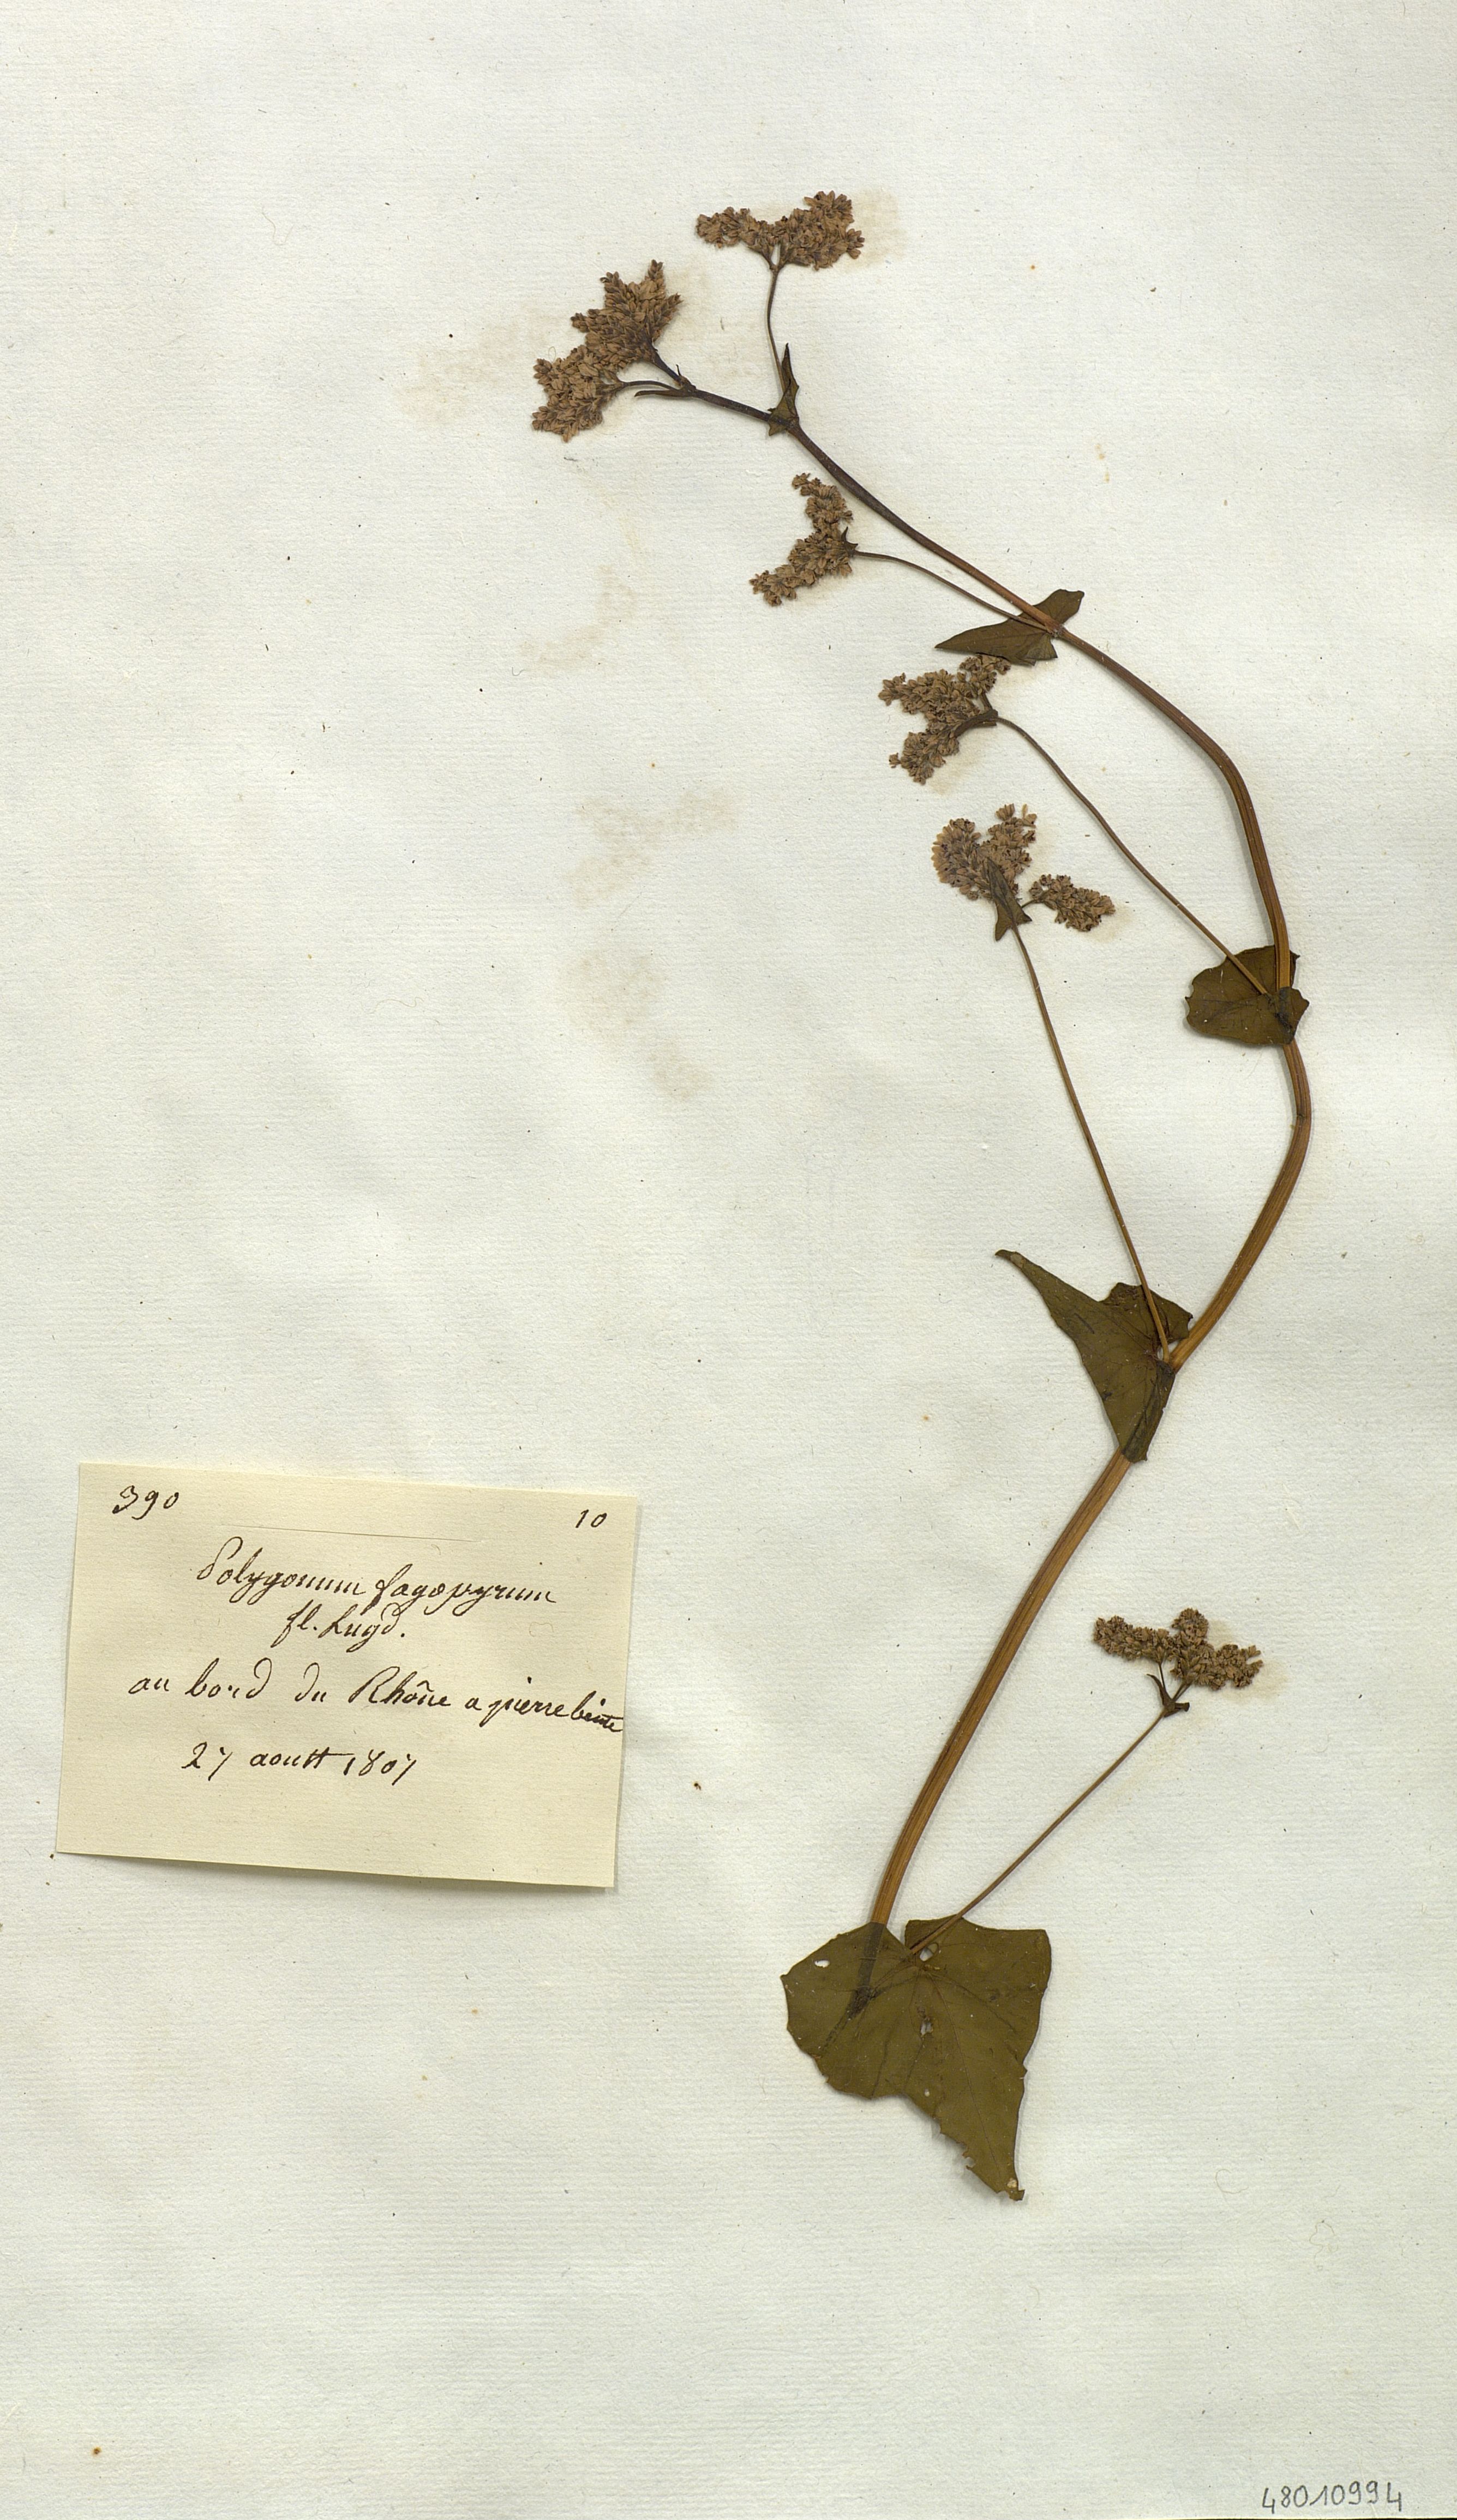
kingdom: Plantae
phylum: Tracheophyta
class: Magnoliopsida
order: Caryophyllales
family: Polygonaceae
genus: Fagopyrum
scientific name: Fagopyrum
